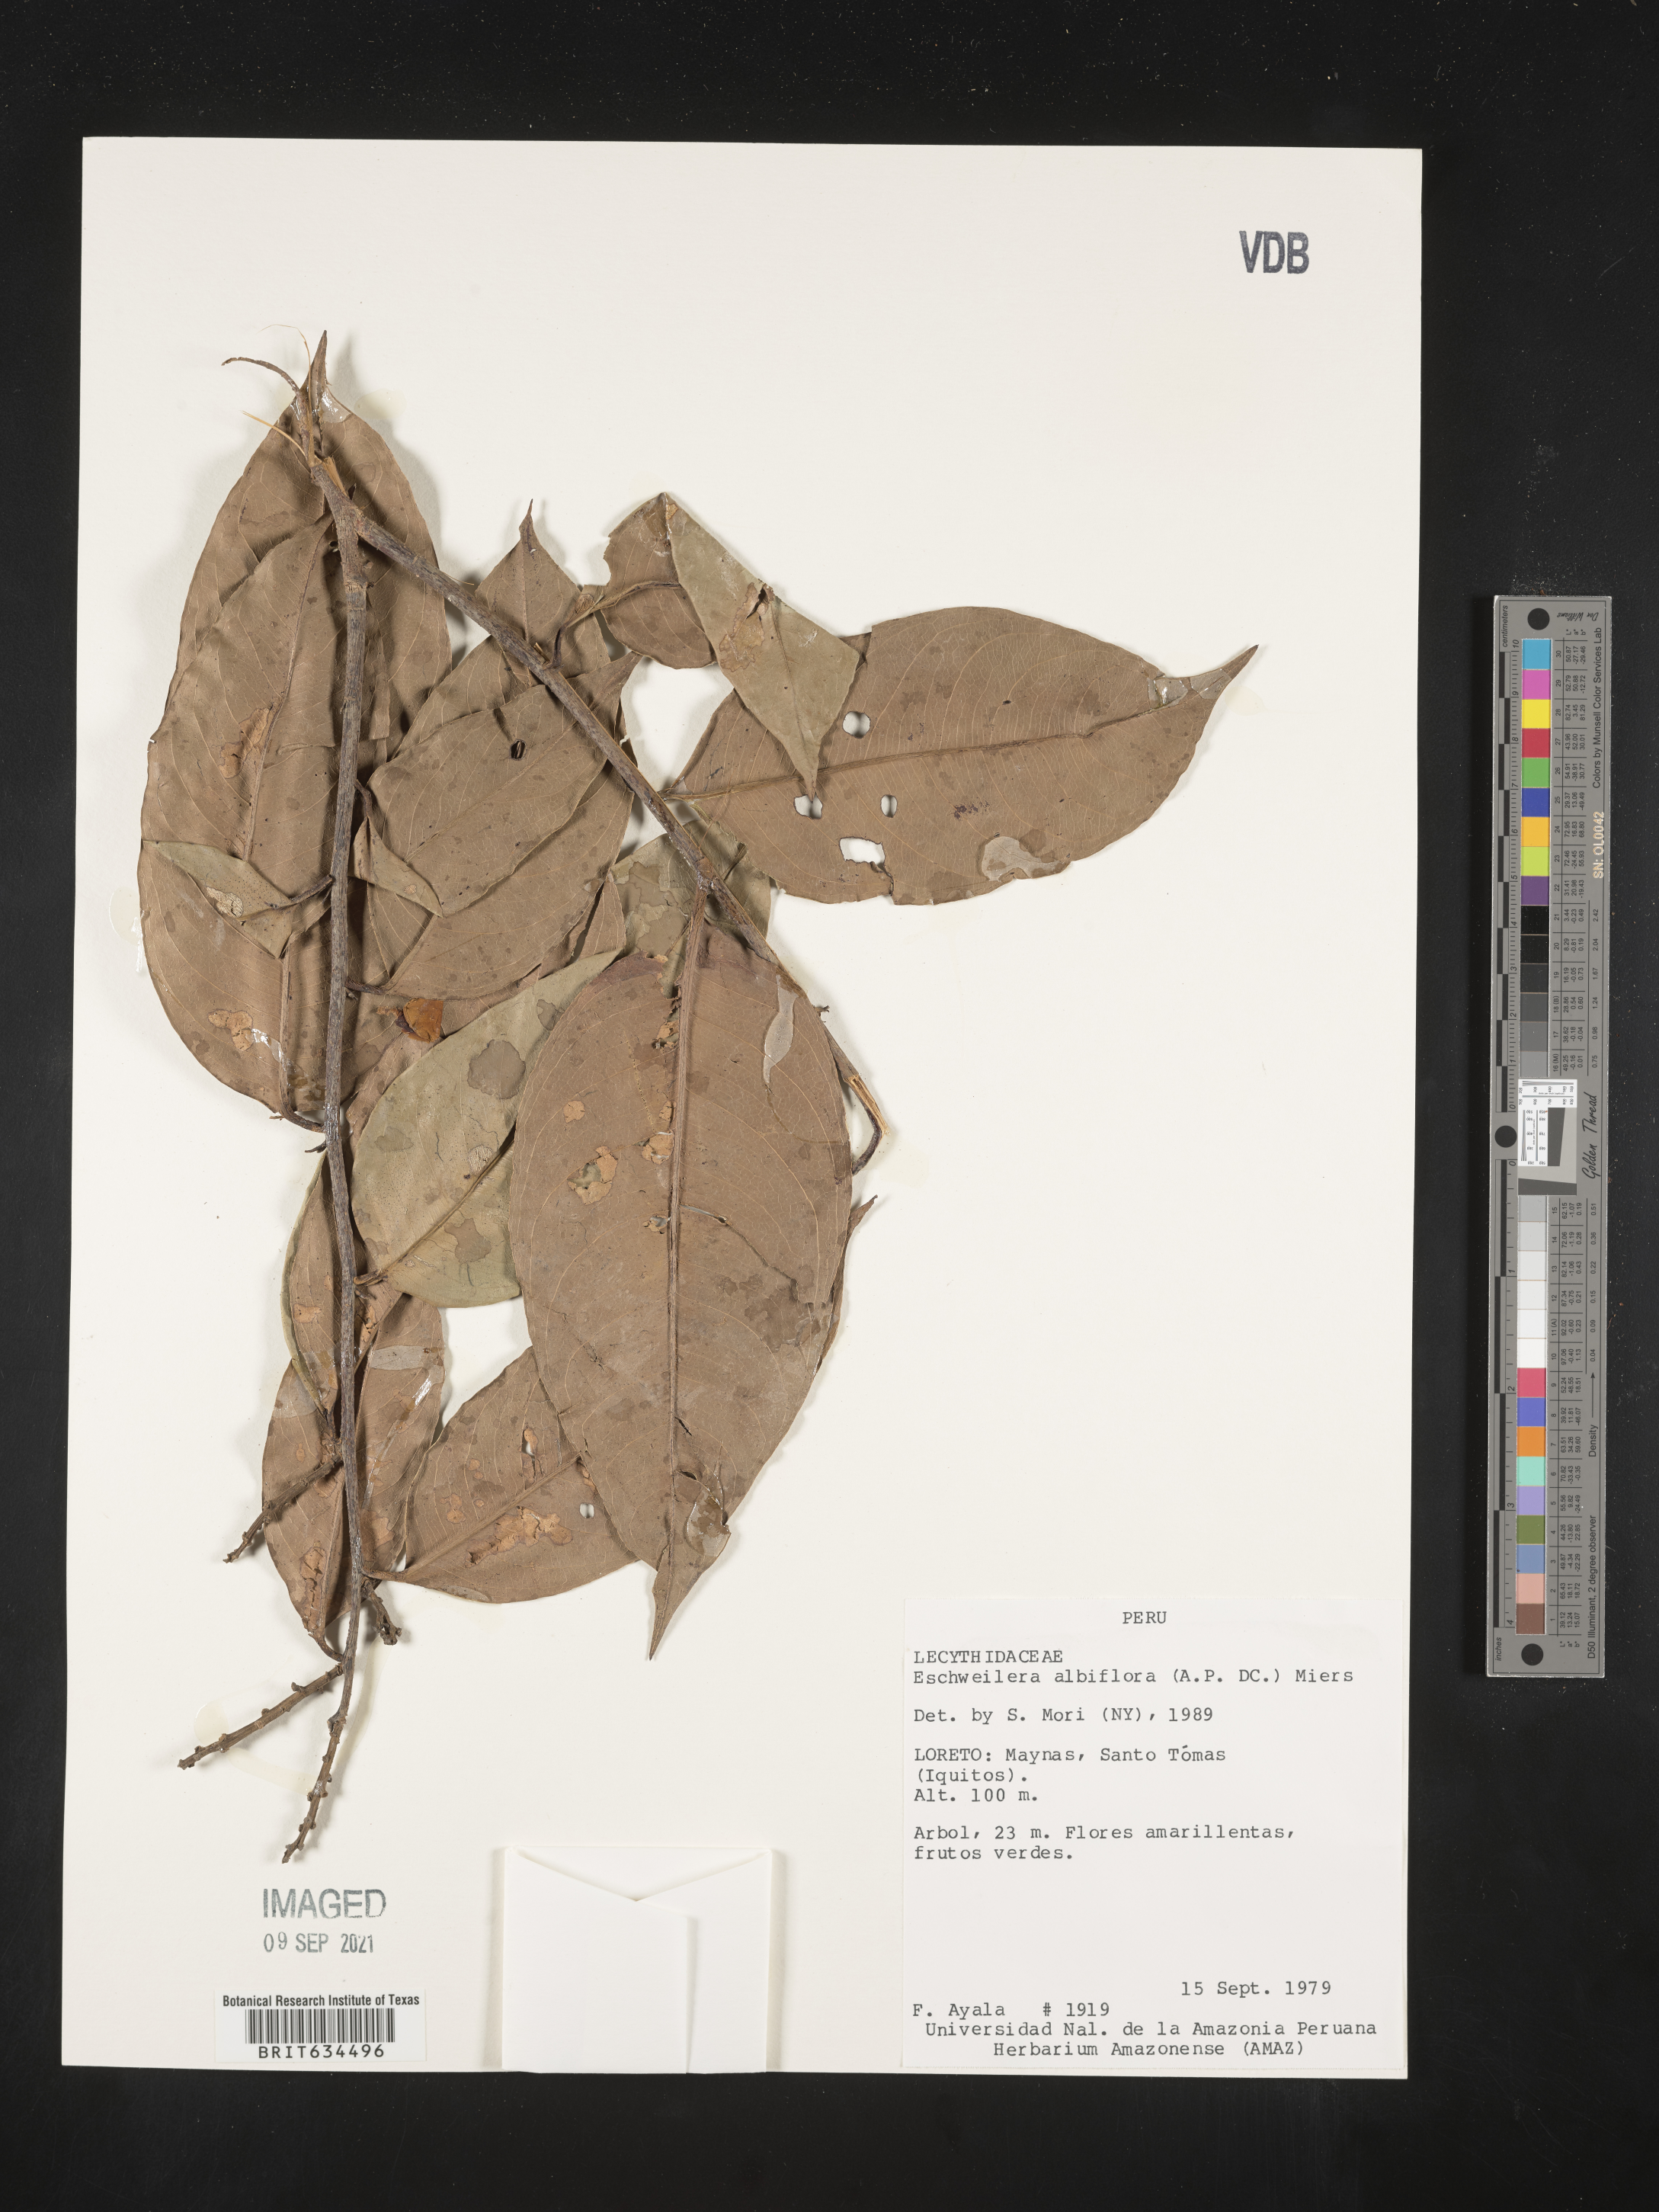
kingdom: Plantae
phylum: Tracheophyta
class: Magnoliopsida
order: Ericales
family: Lecythidaceae
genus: Eschweilera
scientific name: Eschweilera
